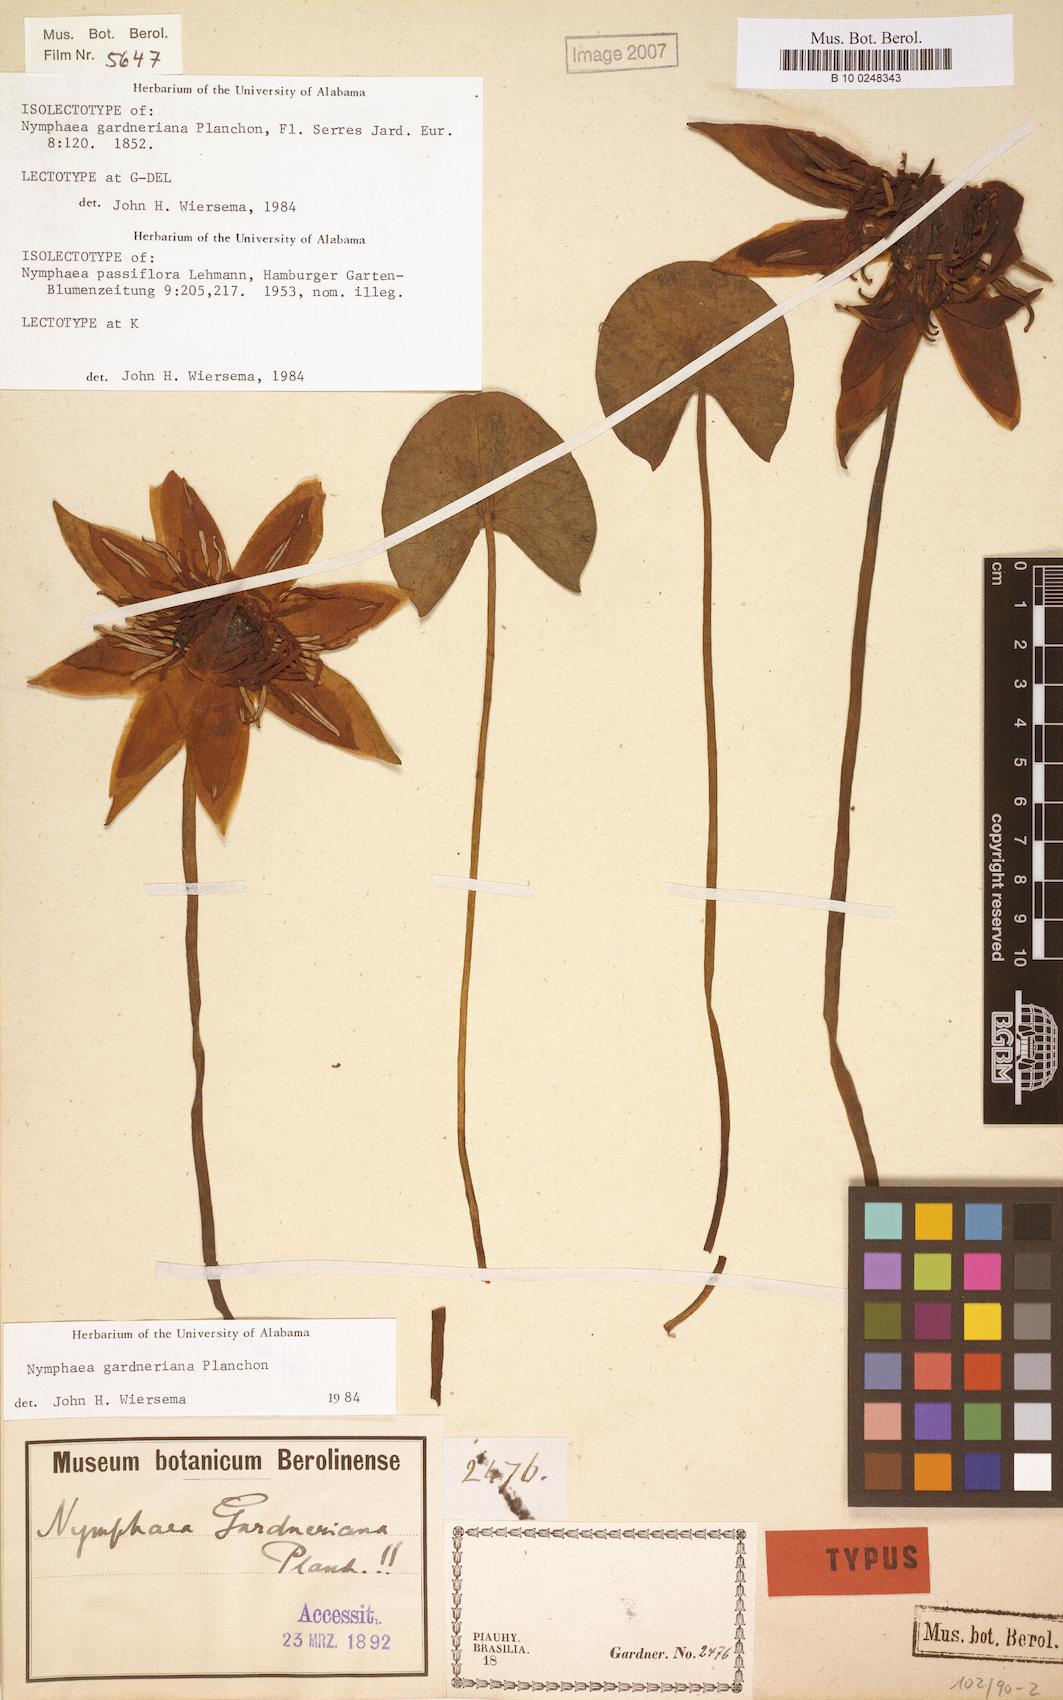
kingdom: Plantae
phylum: Tracheophyta
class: Magnoliopsida
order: Nymphaeales
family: Nymphaeaceae
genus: Nymphaea
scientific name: Nymphaea gardneriana
